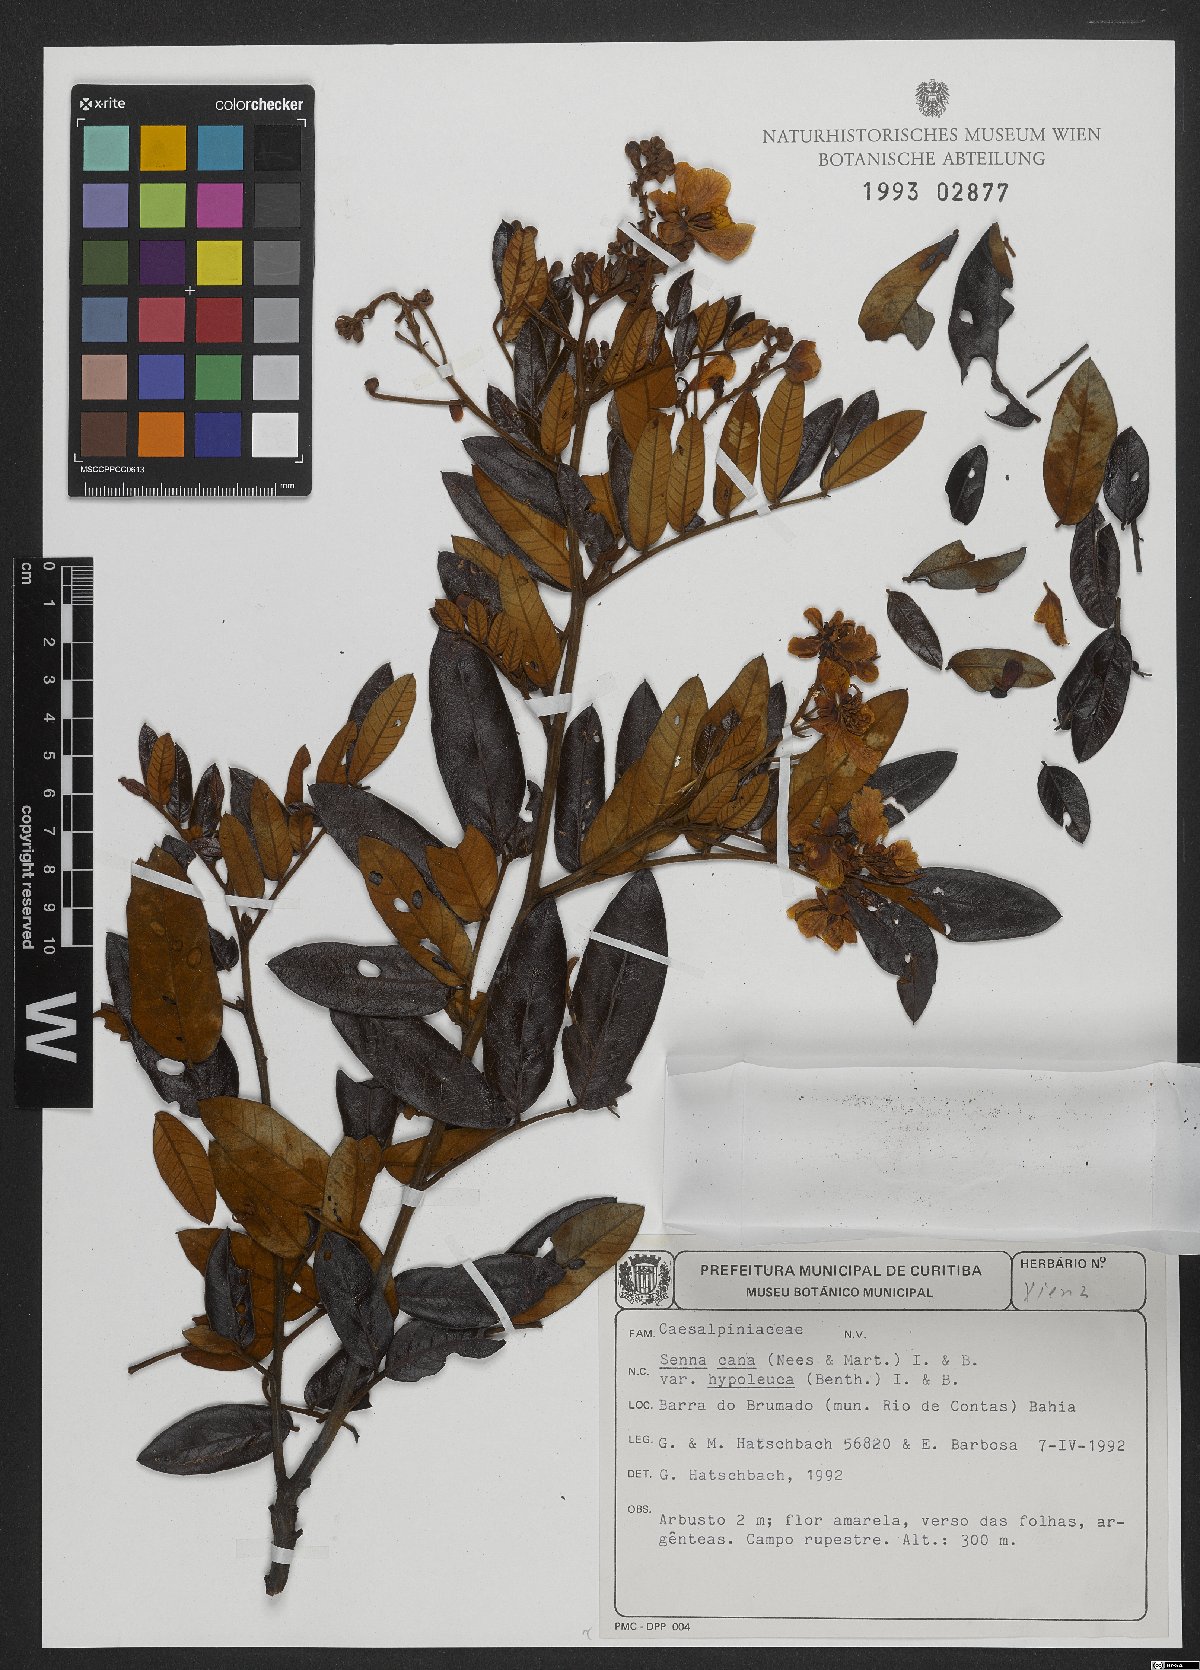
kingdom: Plantae
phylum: Tracheophyta
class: Magnoliopsida
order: Fabales
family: Fabaceae
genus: Senna
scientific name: Senna cana
